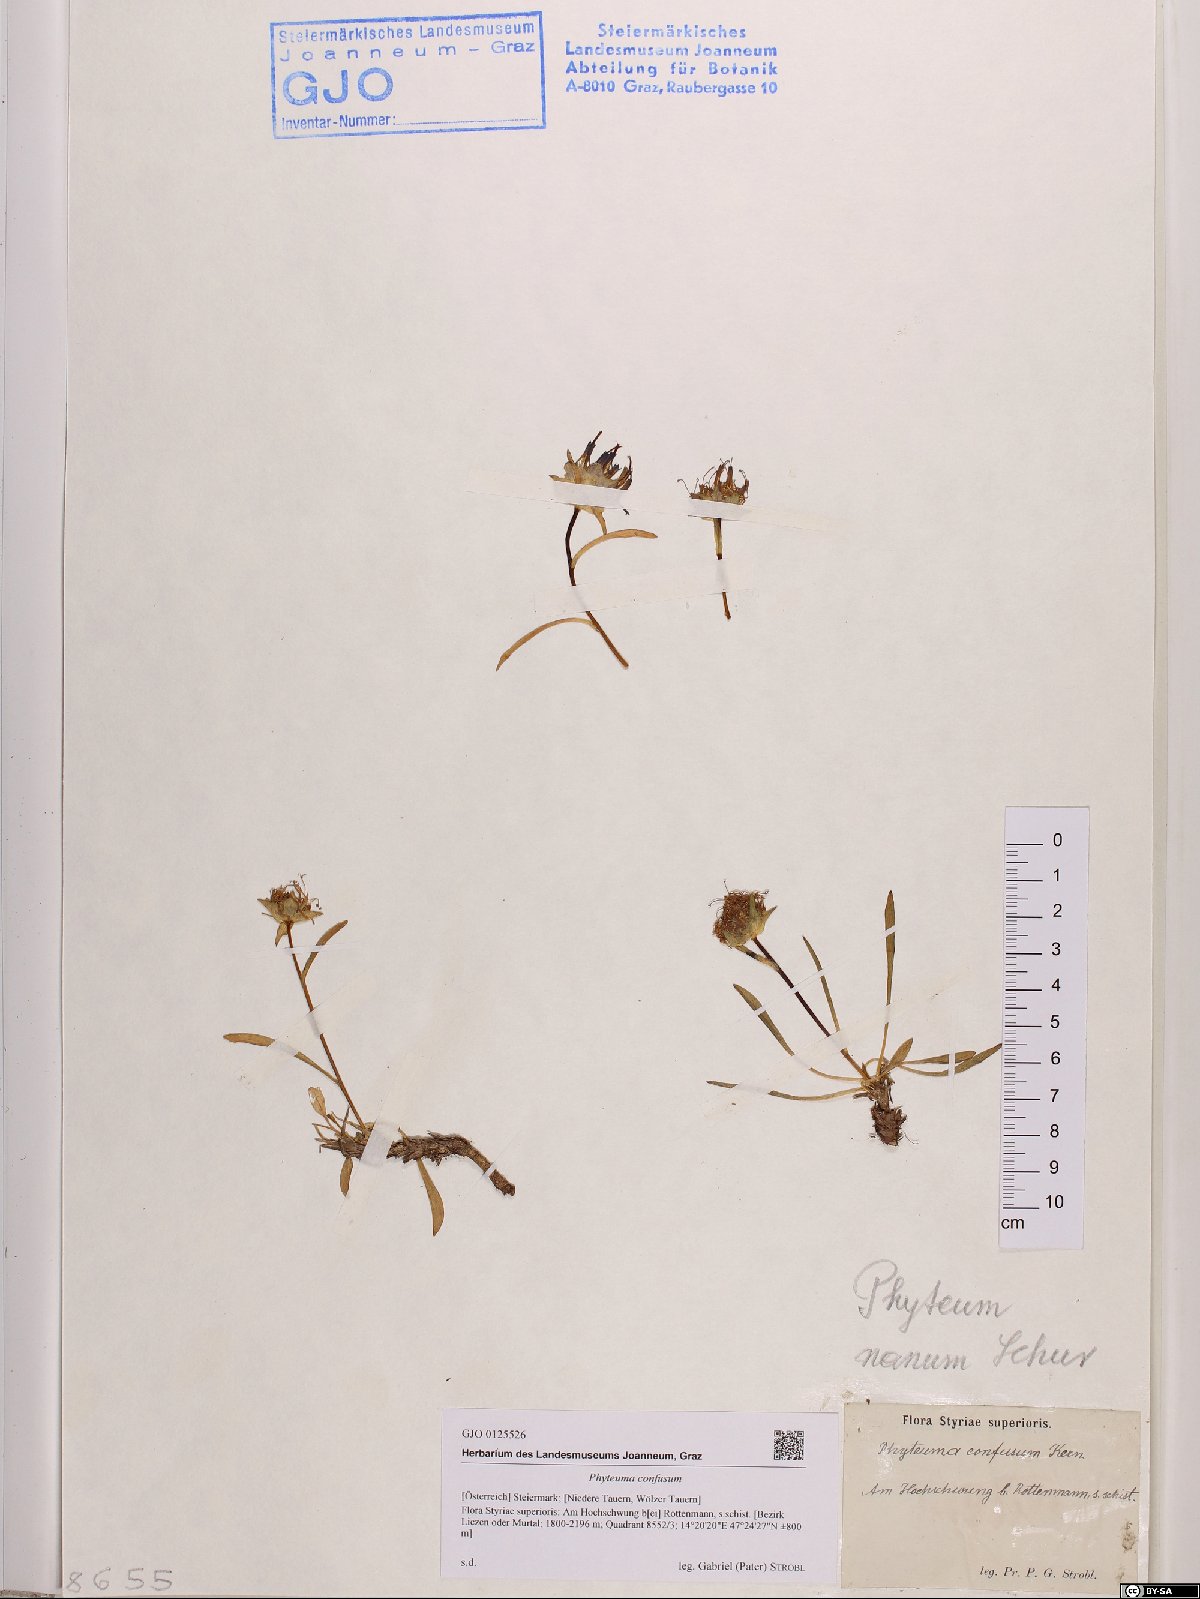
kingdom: Plantae
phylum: Tracheophyta
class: Magnoliopsida
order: Asterales
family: Campanulaceae
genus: Phyteuma
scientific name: Phyteuma confusum
